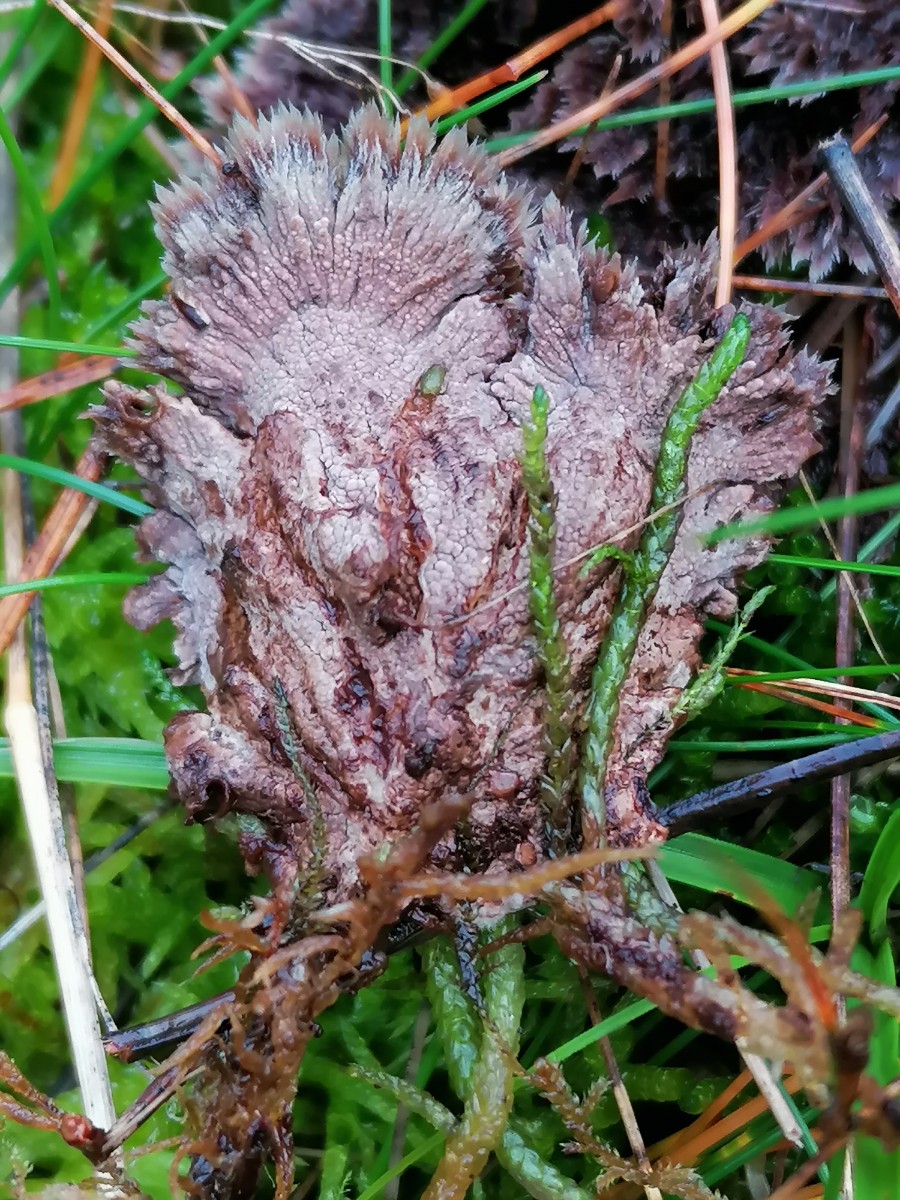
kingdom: Fungi
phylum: Basidiomycota
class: Agaricomycetes
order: Thelephorales
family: Thelephoraceae
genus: Thelephora
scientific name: Thelephora terrestris
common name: fliget frynsesvamp
